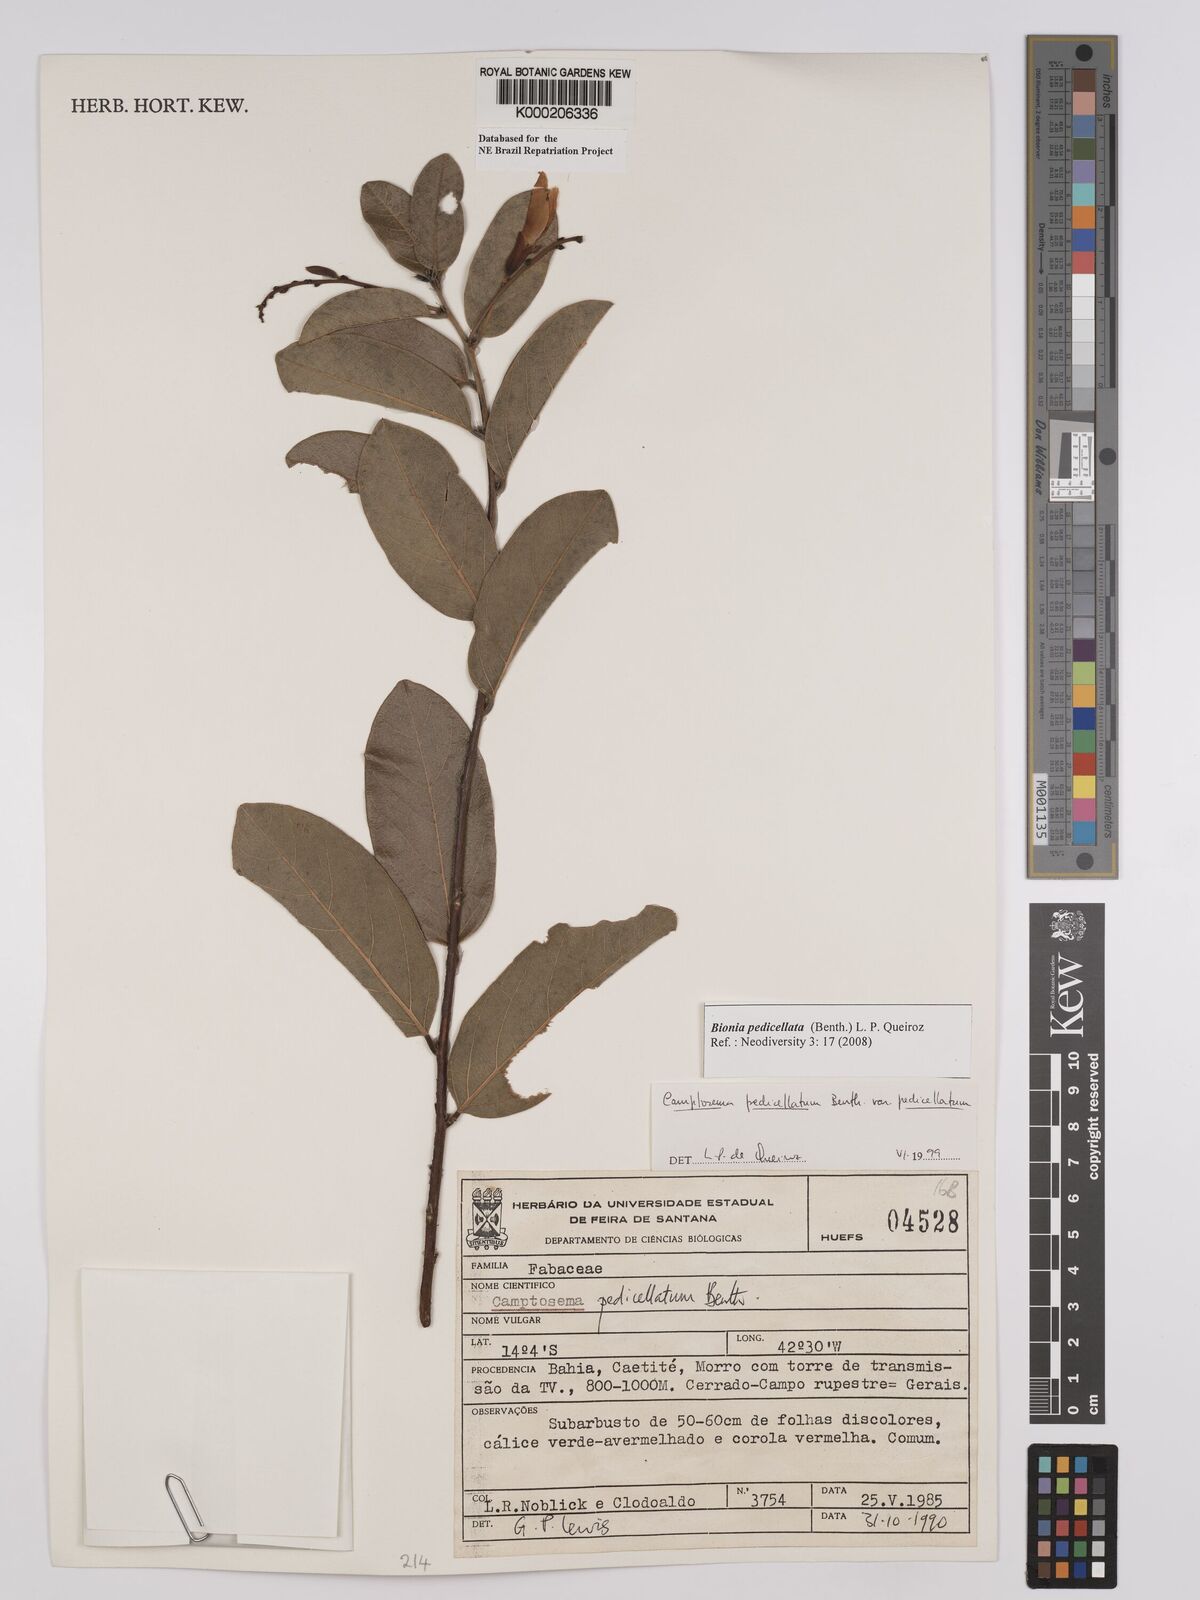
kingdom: Plantae
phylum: Tracheophyta
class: Magnoliopsida
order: Fabales
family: Fabaceae
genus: Camptosema
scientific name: Camptosema pedicellatum
